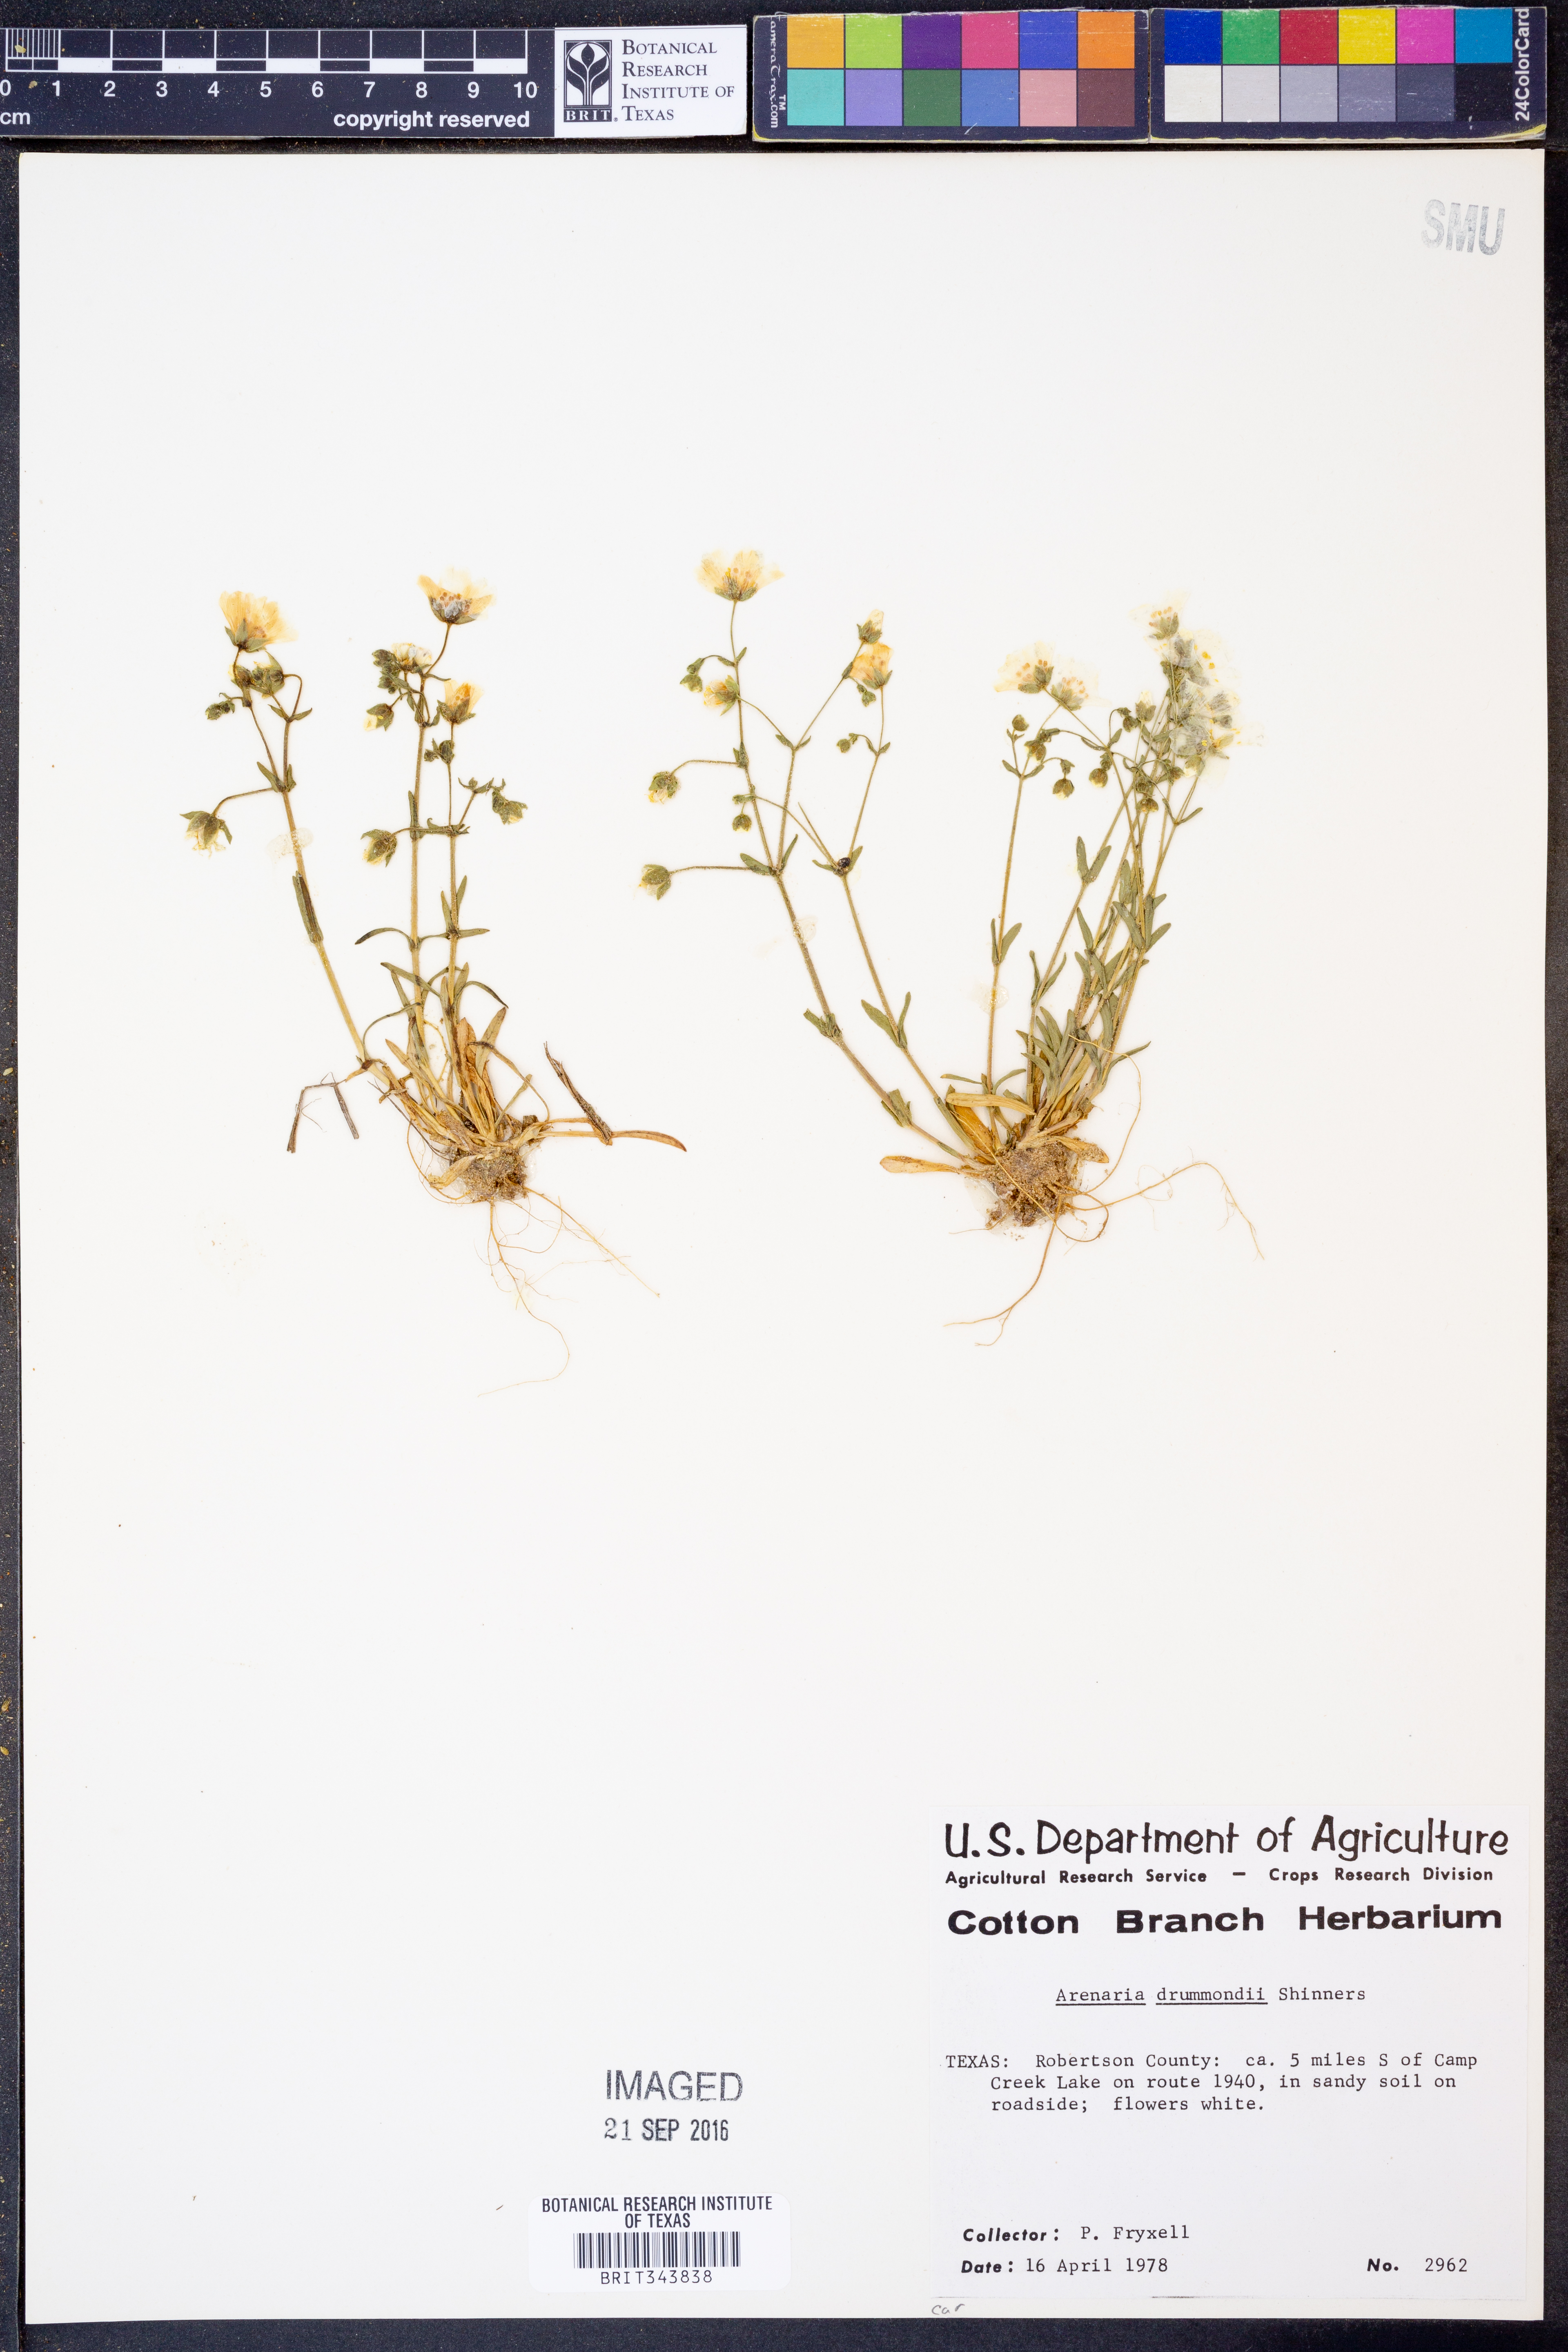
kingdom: Plantae
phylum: Tracheophyta
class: Magnoliopsida
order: Caryophyllales
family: Caryophyllaceae
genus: Geocarpon
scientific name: Geocarpon nuttallii
